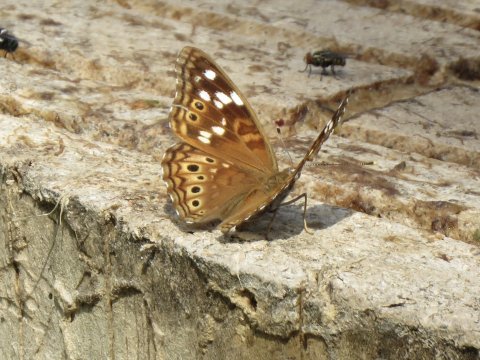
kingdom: Animalia
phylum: Arthropoda
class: Insecta
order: Lepidoptera
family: Nymphalidae
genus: Asterocampa
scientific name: Asterocampa leilia
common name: Empress Leilia
